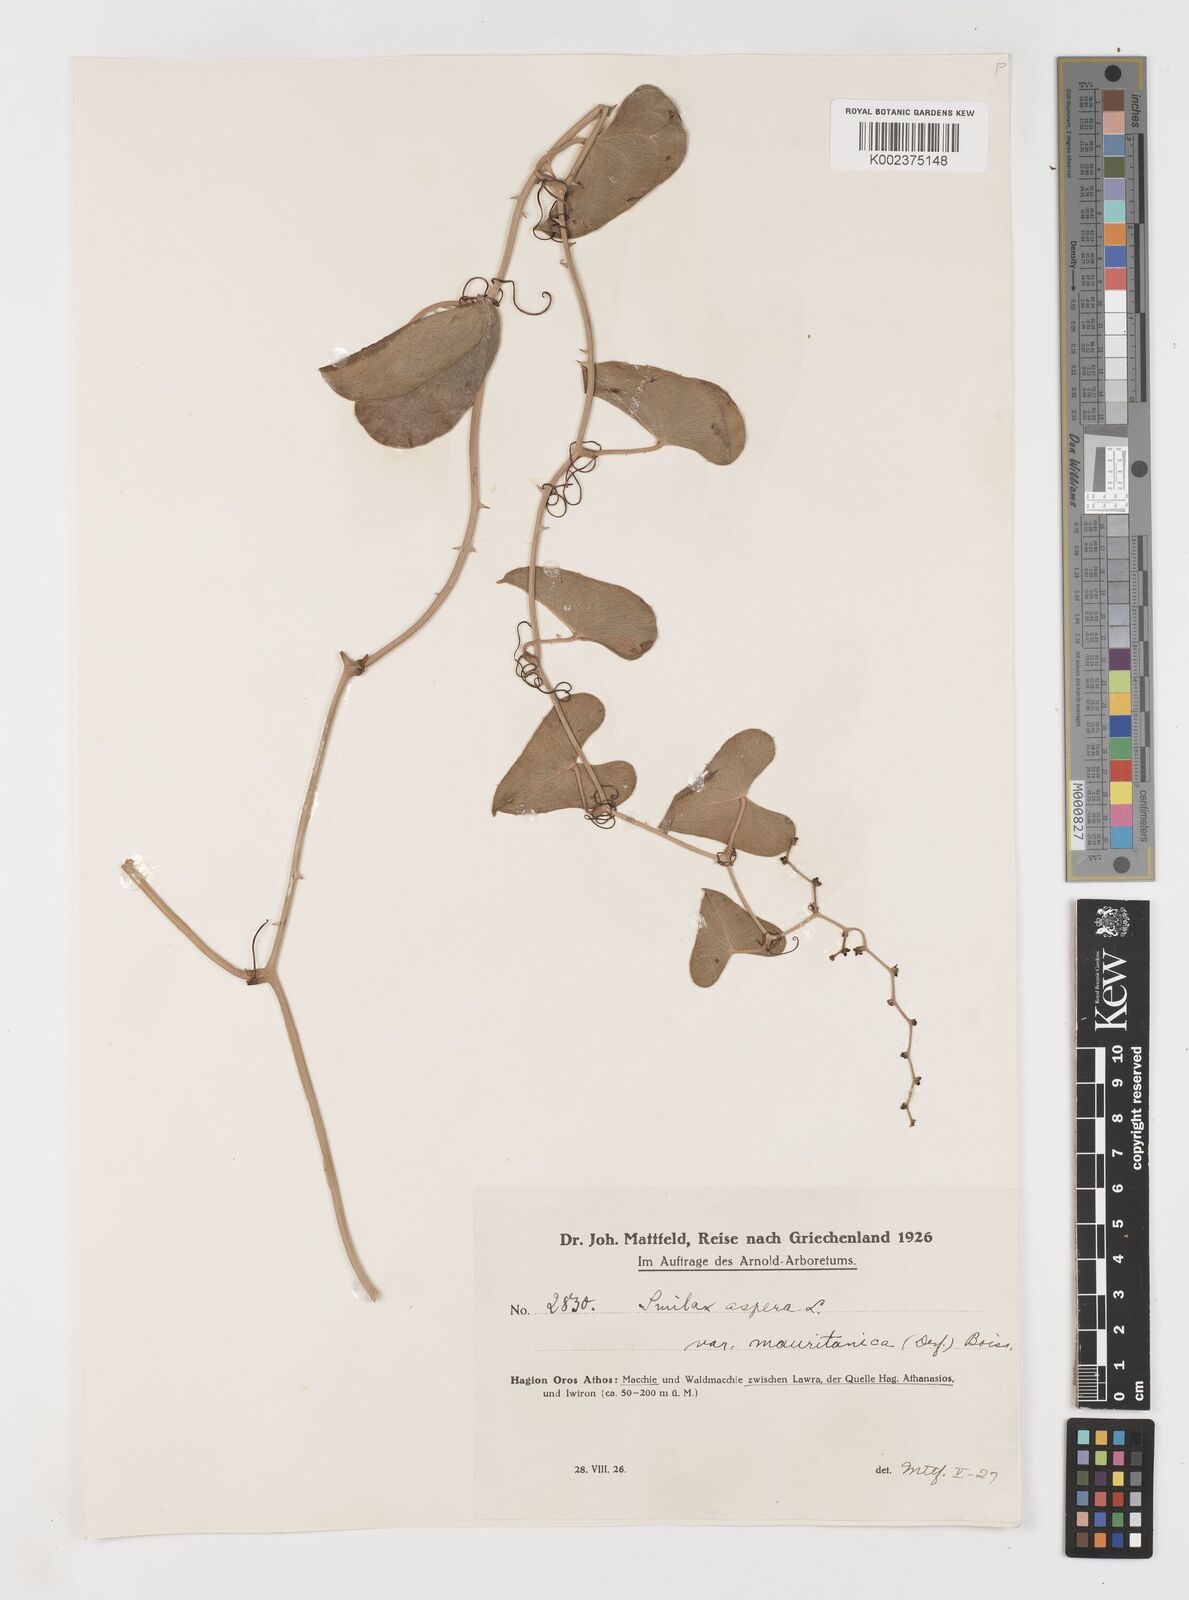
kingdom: Plantae
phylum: Tracheophyta
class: Liliopsida
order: Liliales
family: Smilacaceae
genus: Smilax
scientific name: Smilax aspera
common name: Common smilax
